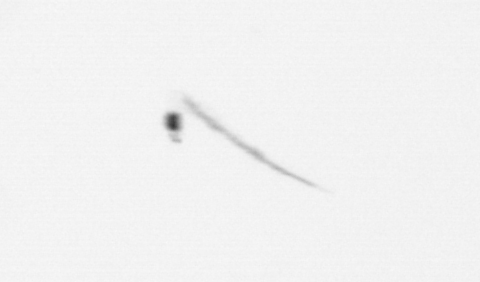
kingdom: Chromista
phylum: Ochrophyta
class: Bacillariophyceae
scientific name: Bacillariophyceae
